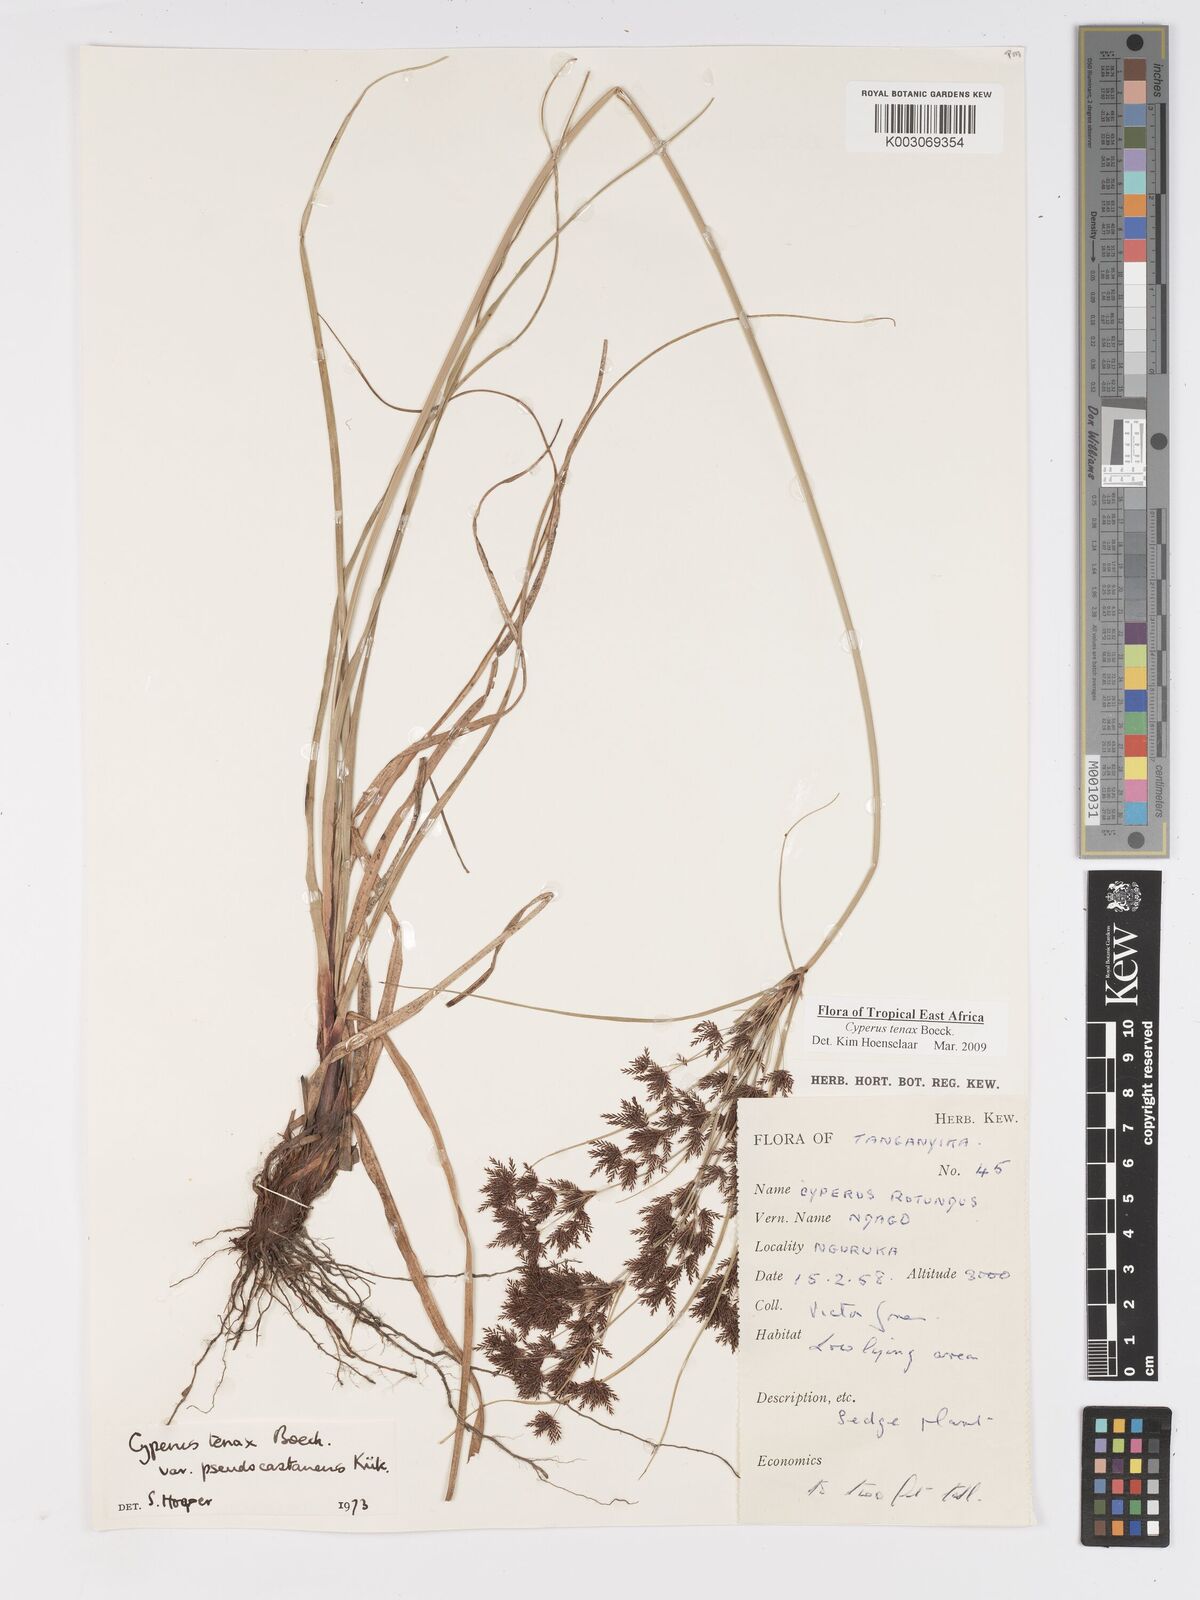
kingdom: Plantae
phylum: Tracheophyta
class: Liliopsida
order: Poales
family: Cyperaceae
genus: Cyperus
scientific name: Cyperus tenax
